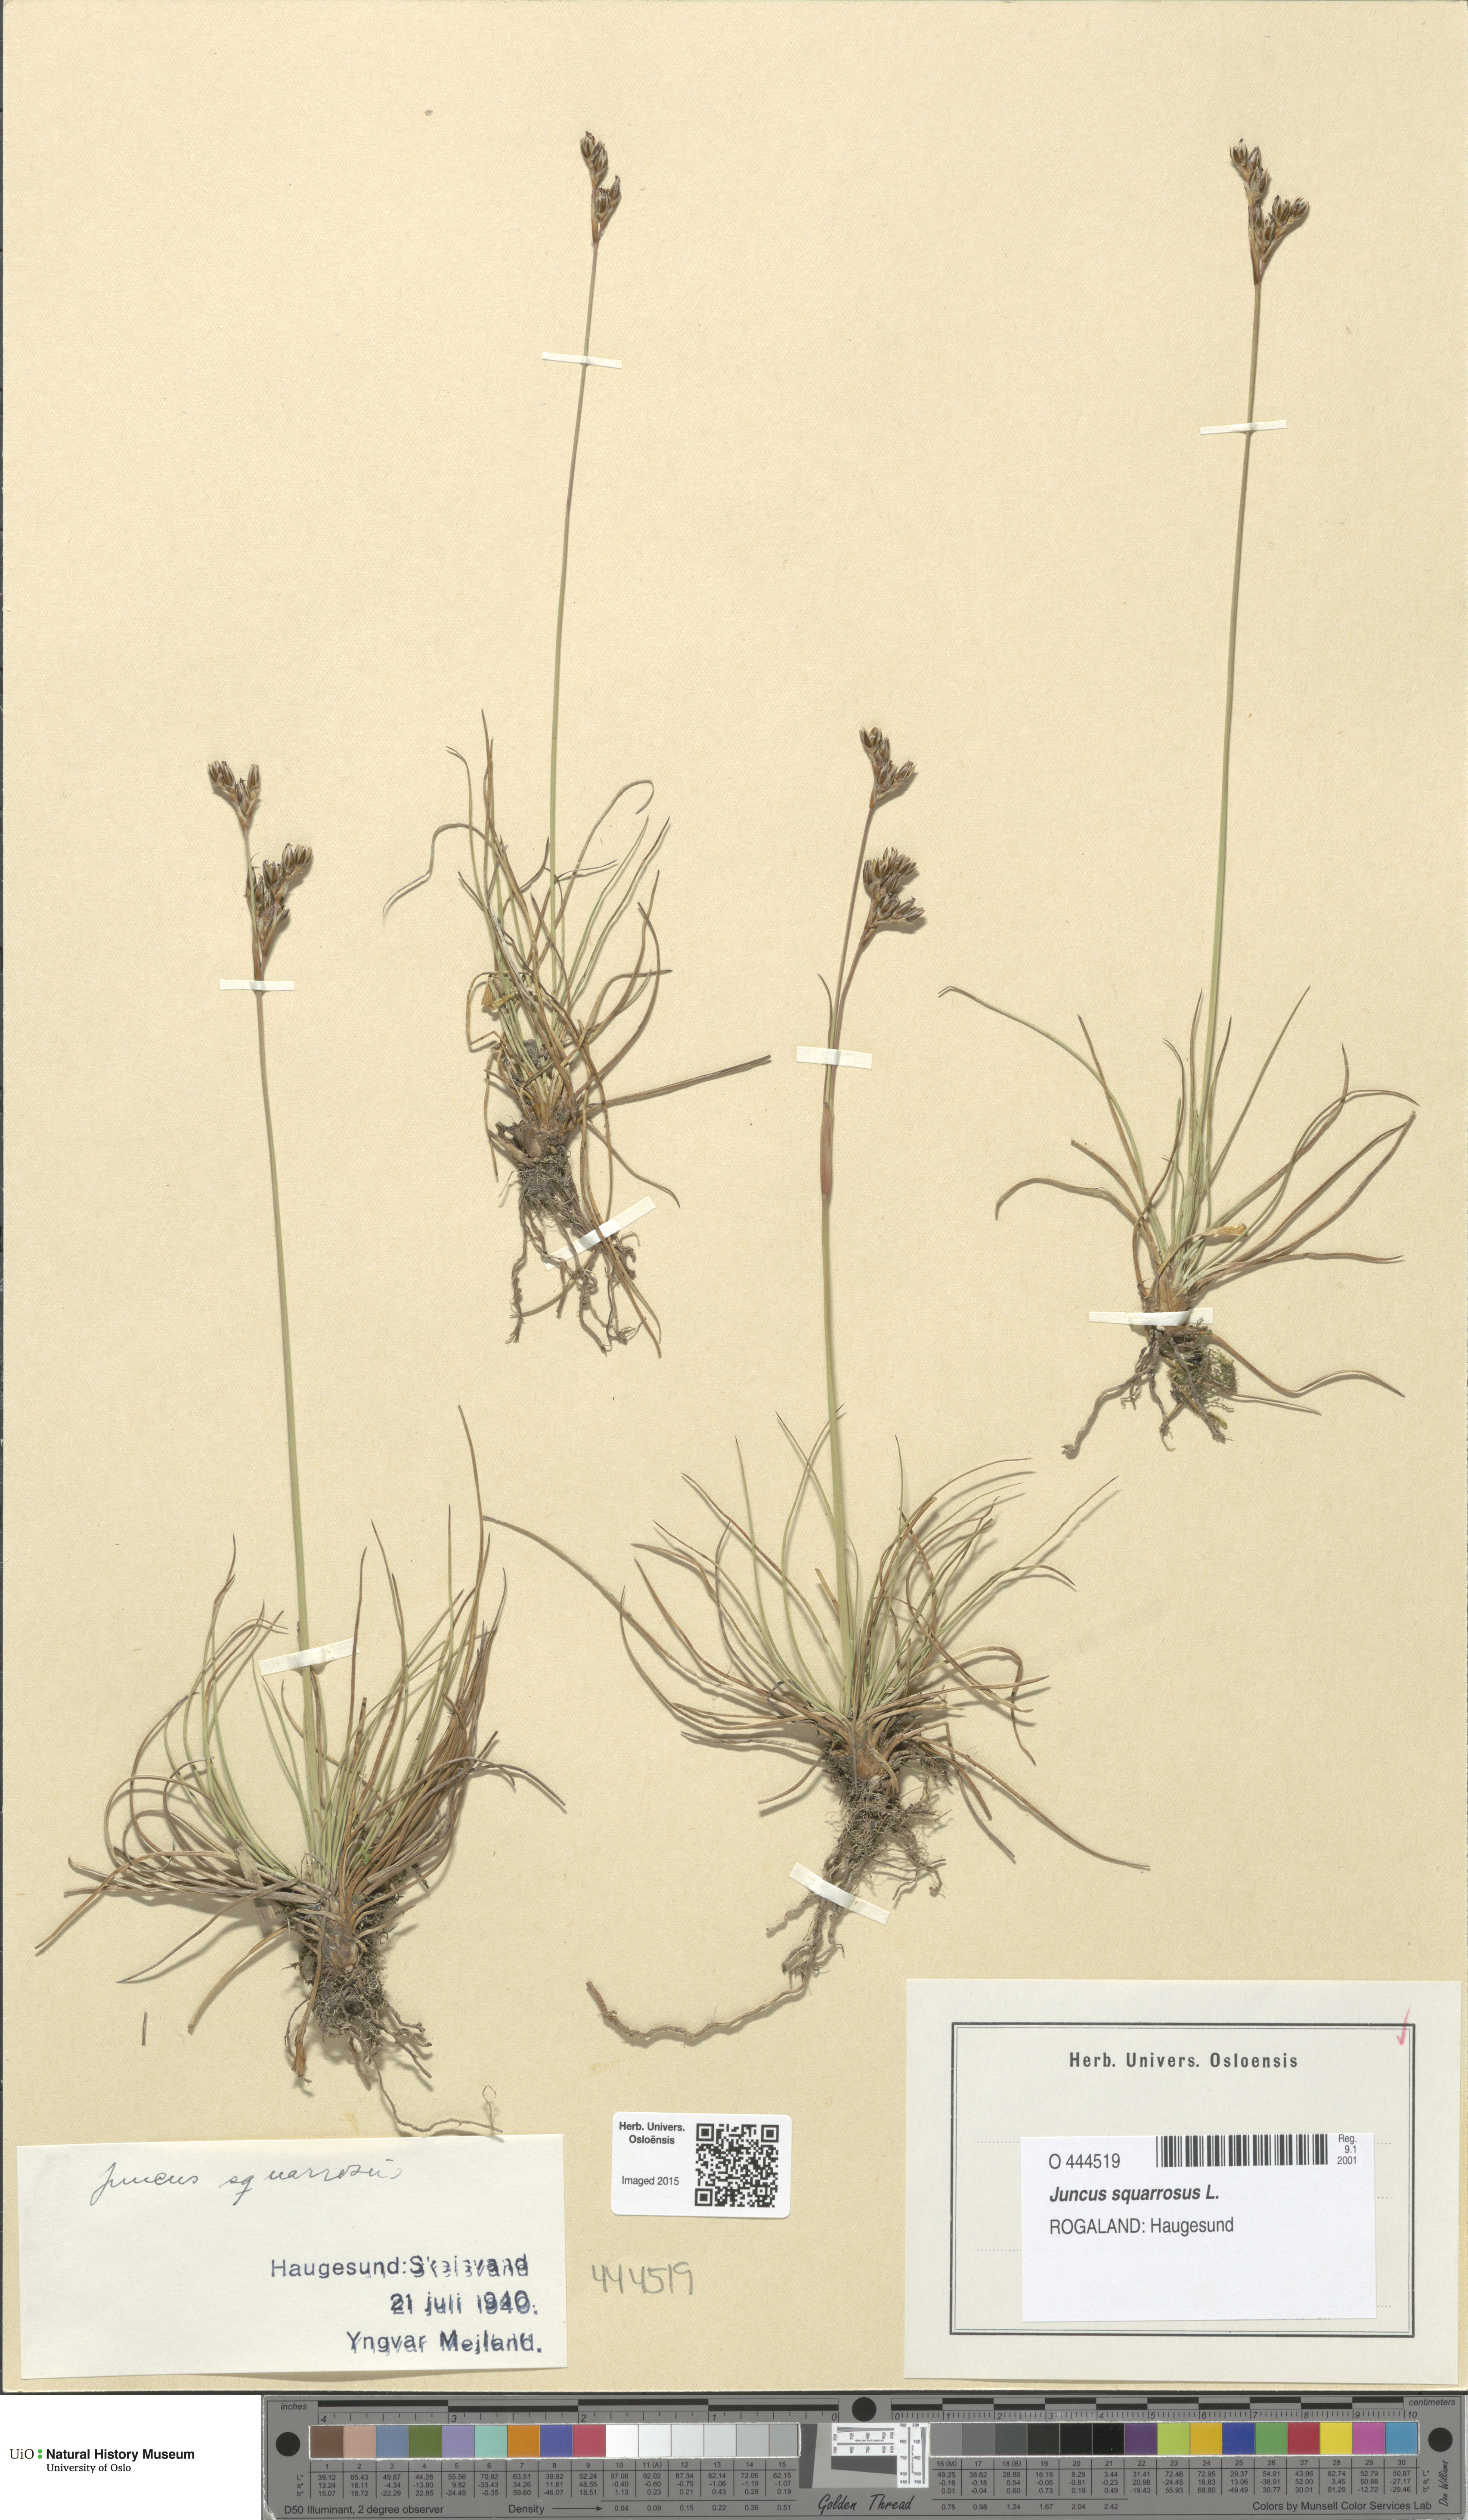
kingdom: Plantae
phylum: Tracheophyta
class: Liliopsida
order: Poales
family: Juncaceae
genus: Juncus
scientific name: Juncus squarrosus
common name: Heath rush
